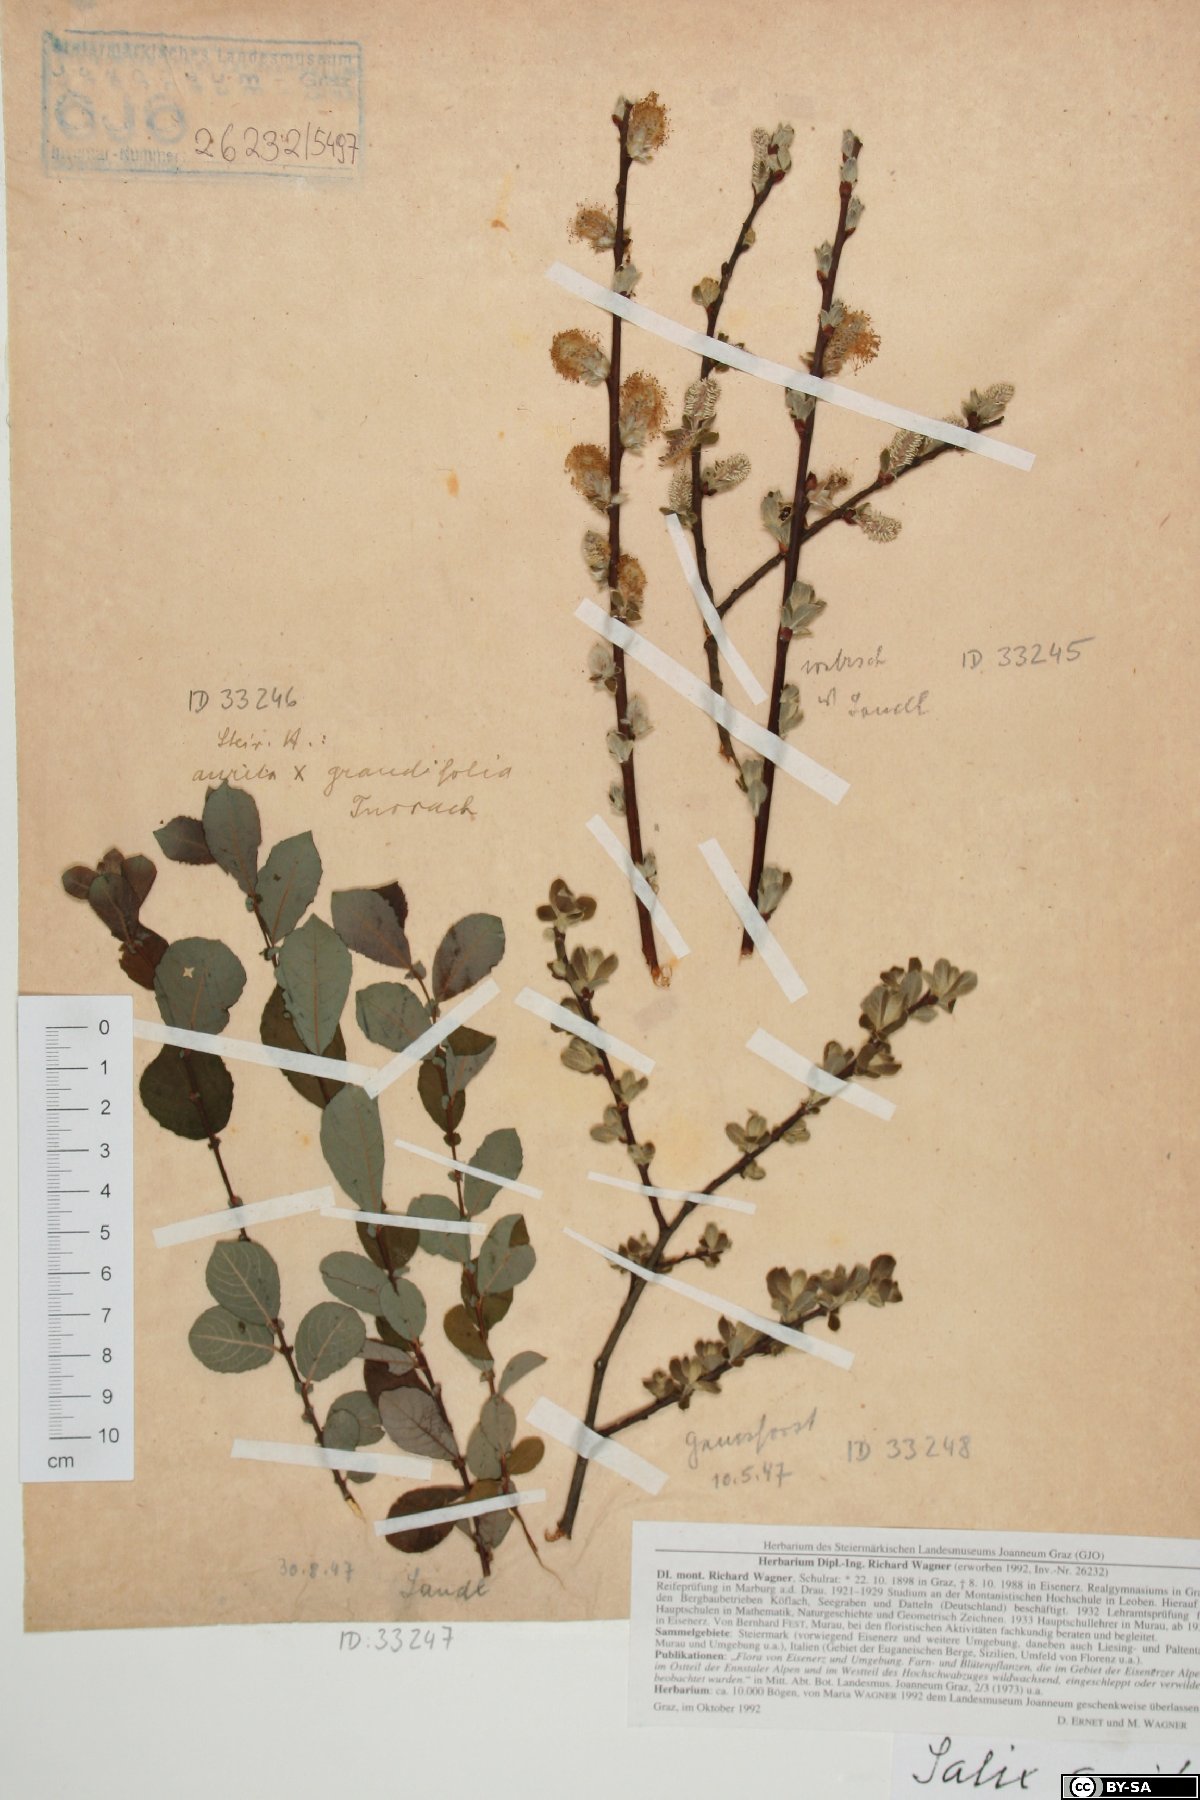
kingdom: Plantae
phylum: Tracheophyta
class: Magnoliopsida
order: Malpighiales
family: Salicaceae
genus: Salix
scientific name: Salix aurita
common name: Eared willow
